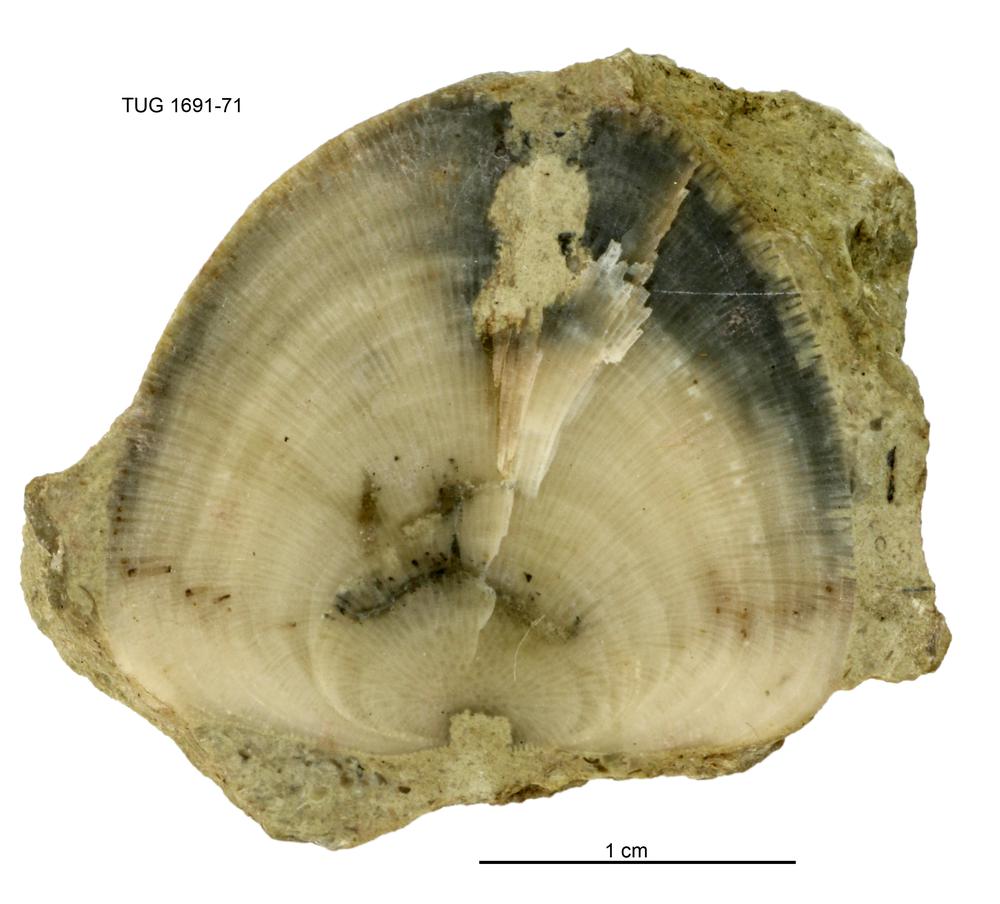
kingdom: Animalia
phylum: Bryozoa
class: Stenolaemata
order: Trepostomatida
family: Diplotrypidae
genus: Diplotrypa
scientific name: Diplotrypa bicornis
